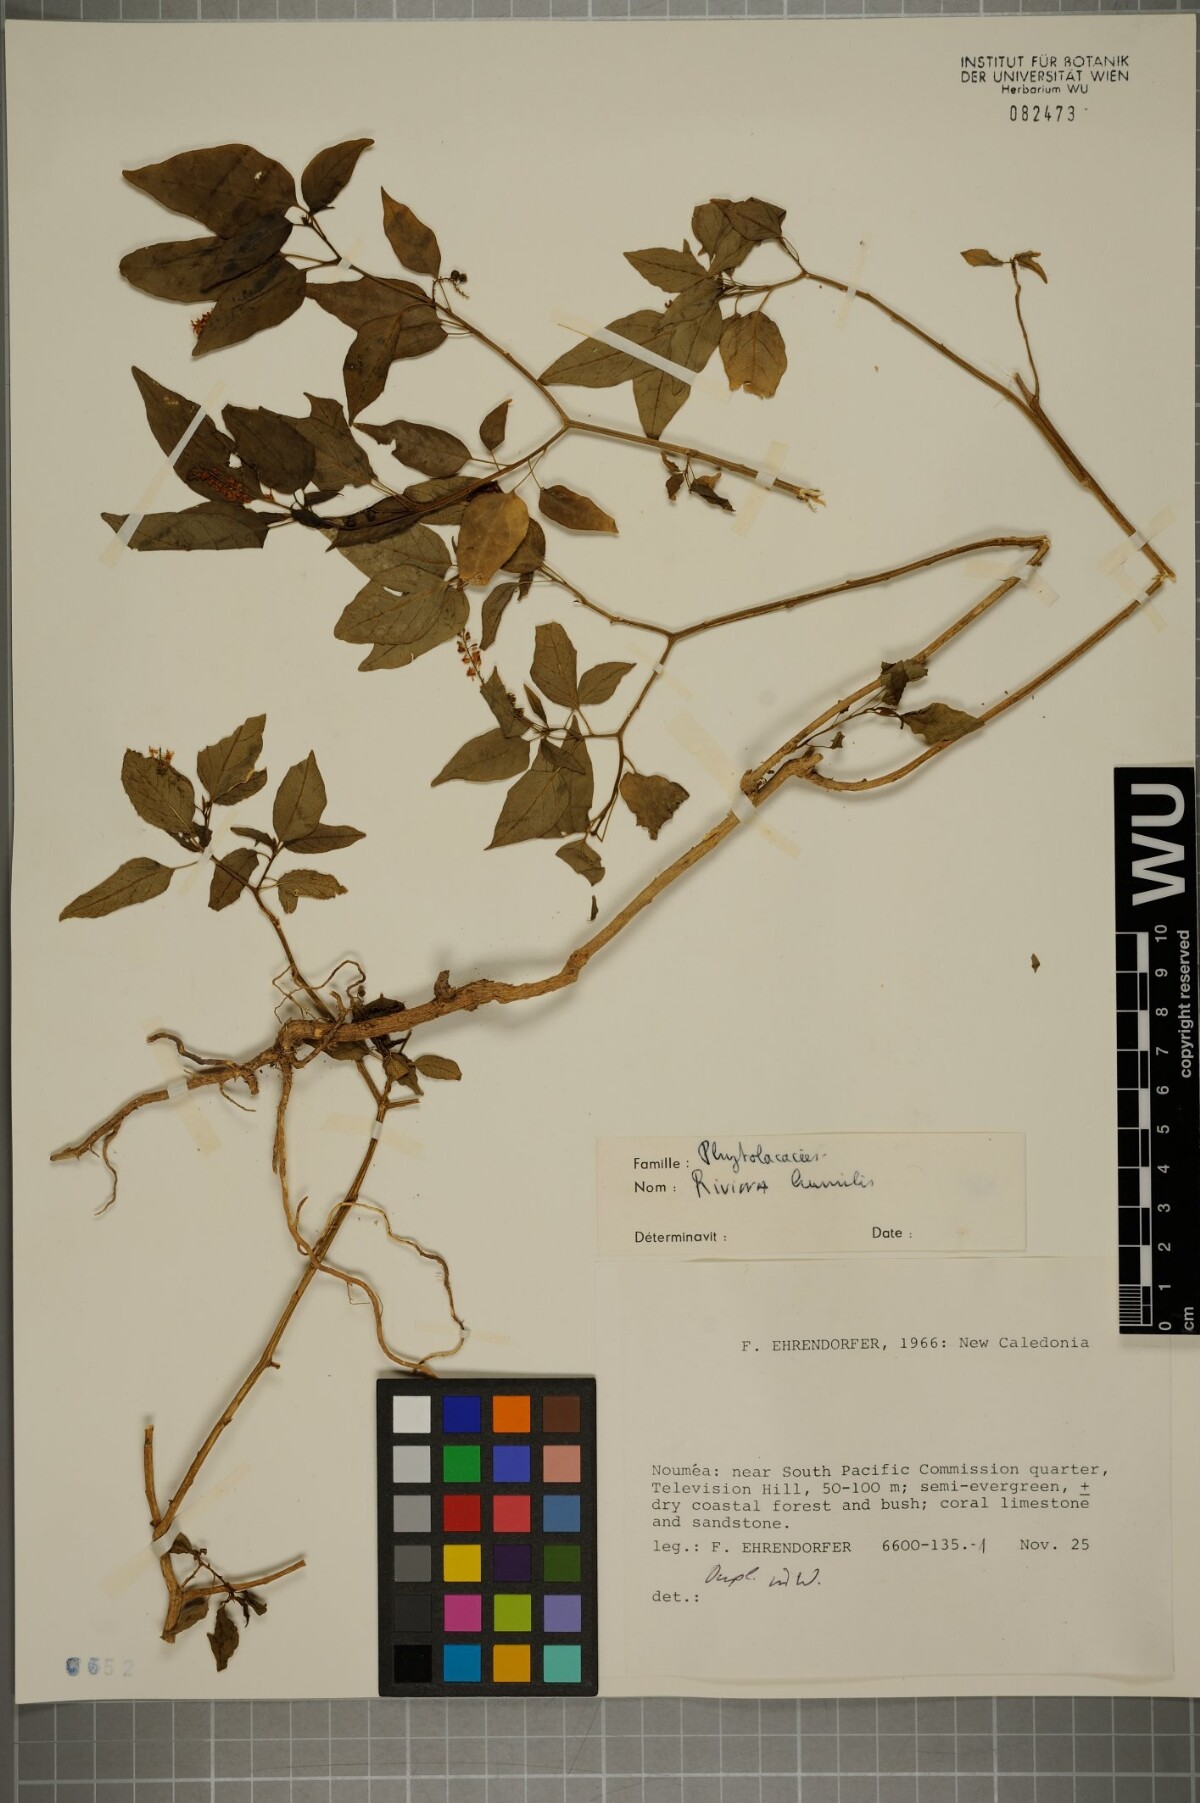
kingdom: Plantae
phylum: Tracheophyta
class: Magnoliopsida
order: Caryophyllales
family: Phytolaccaceae
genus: Rivina
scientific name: Rivina humilis
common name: Rougeplant
